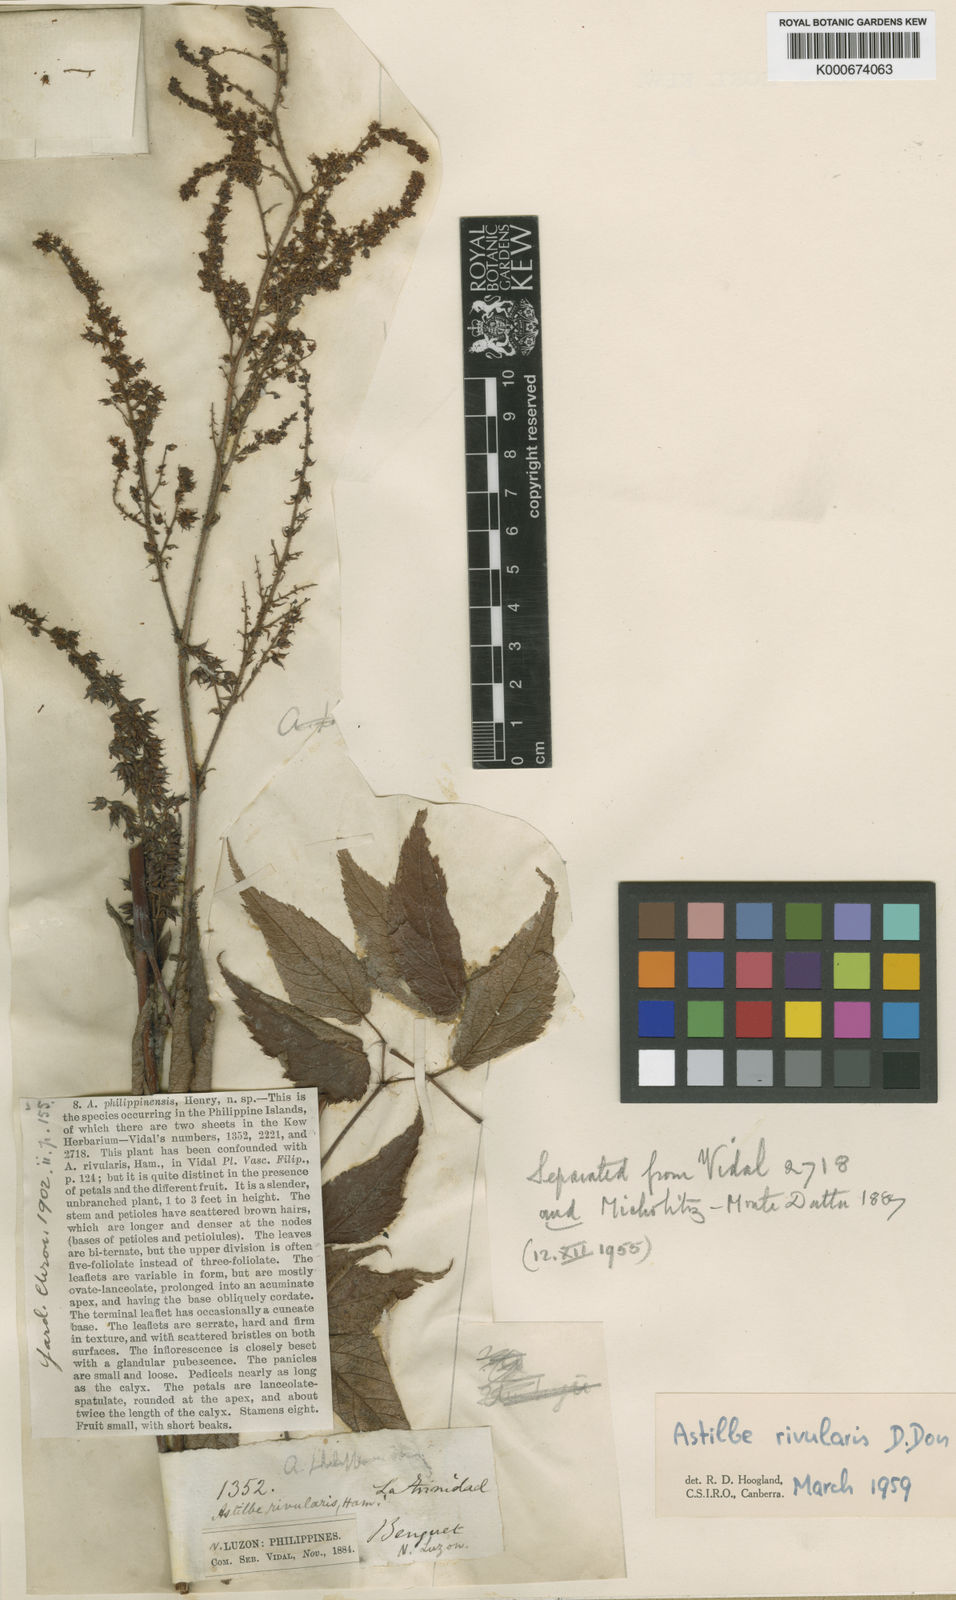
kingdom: Plantae
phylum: Tracheophyta
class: Magnoliopsida
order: Saxifragales
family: Saxifragaceae
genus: Astilbe
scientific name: Astilbe philippinensis
